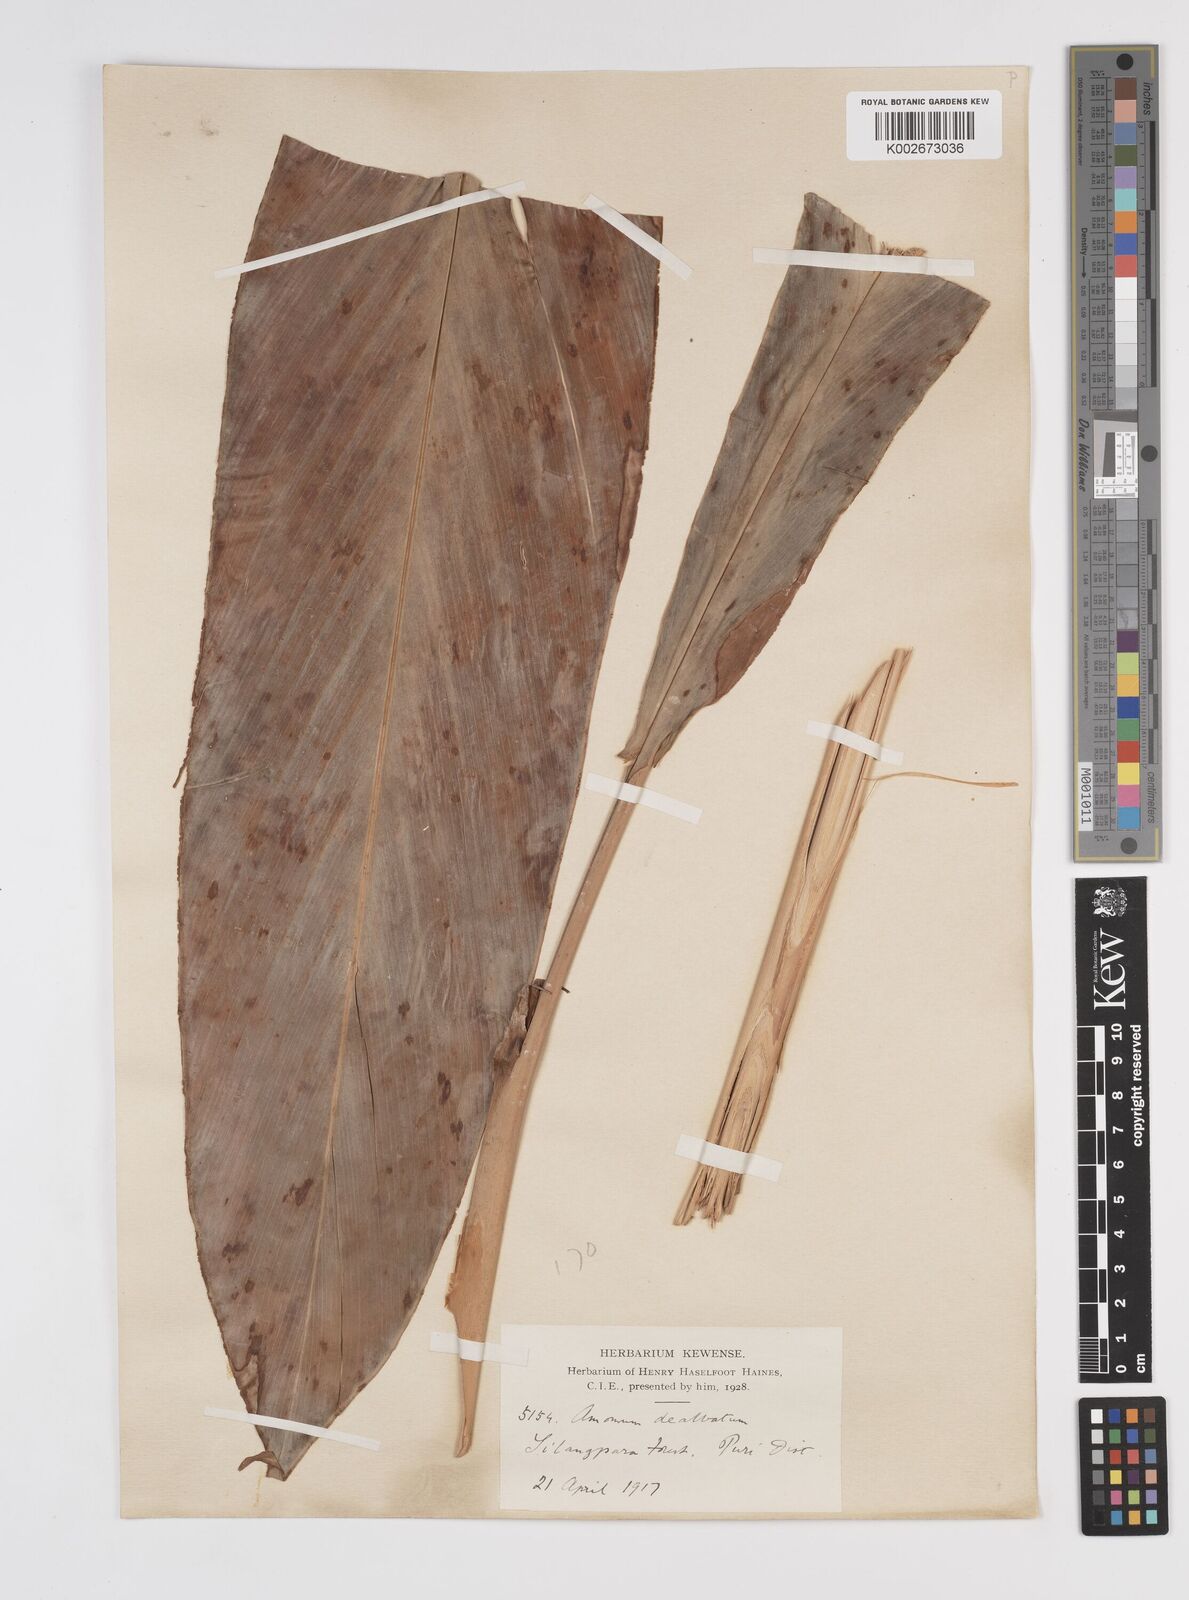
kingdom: Plantae
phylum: Tracheophyta
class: Liliopsida
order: Zingiberales
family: Zingiberaceae
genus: Amomum
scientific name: Amomum dealbatum
